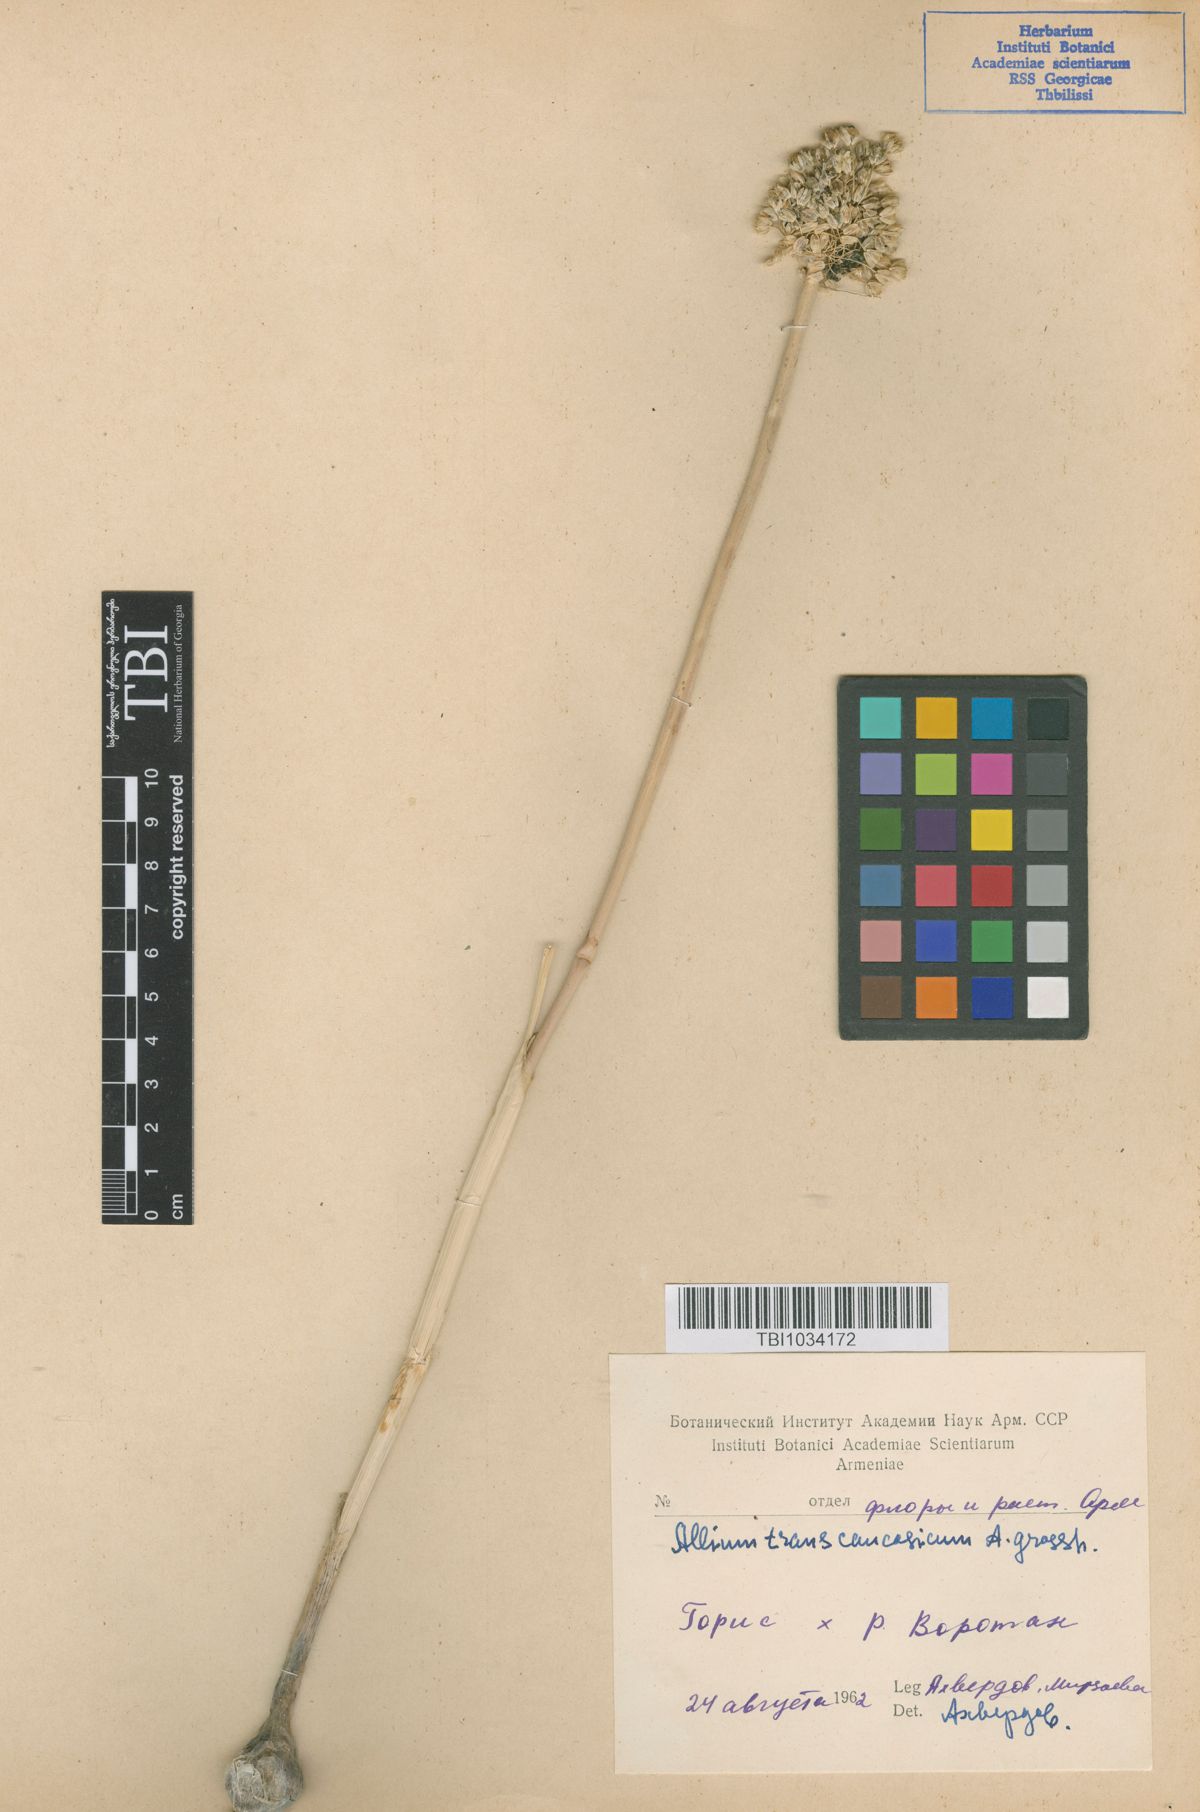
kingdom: Plantae
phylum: Tracheophyta
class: Liliopsida
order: Asparagales
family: Amaryllidaceae
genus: Allium
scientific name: Allium affine
